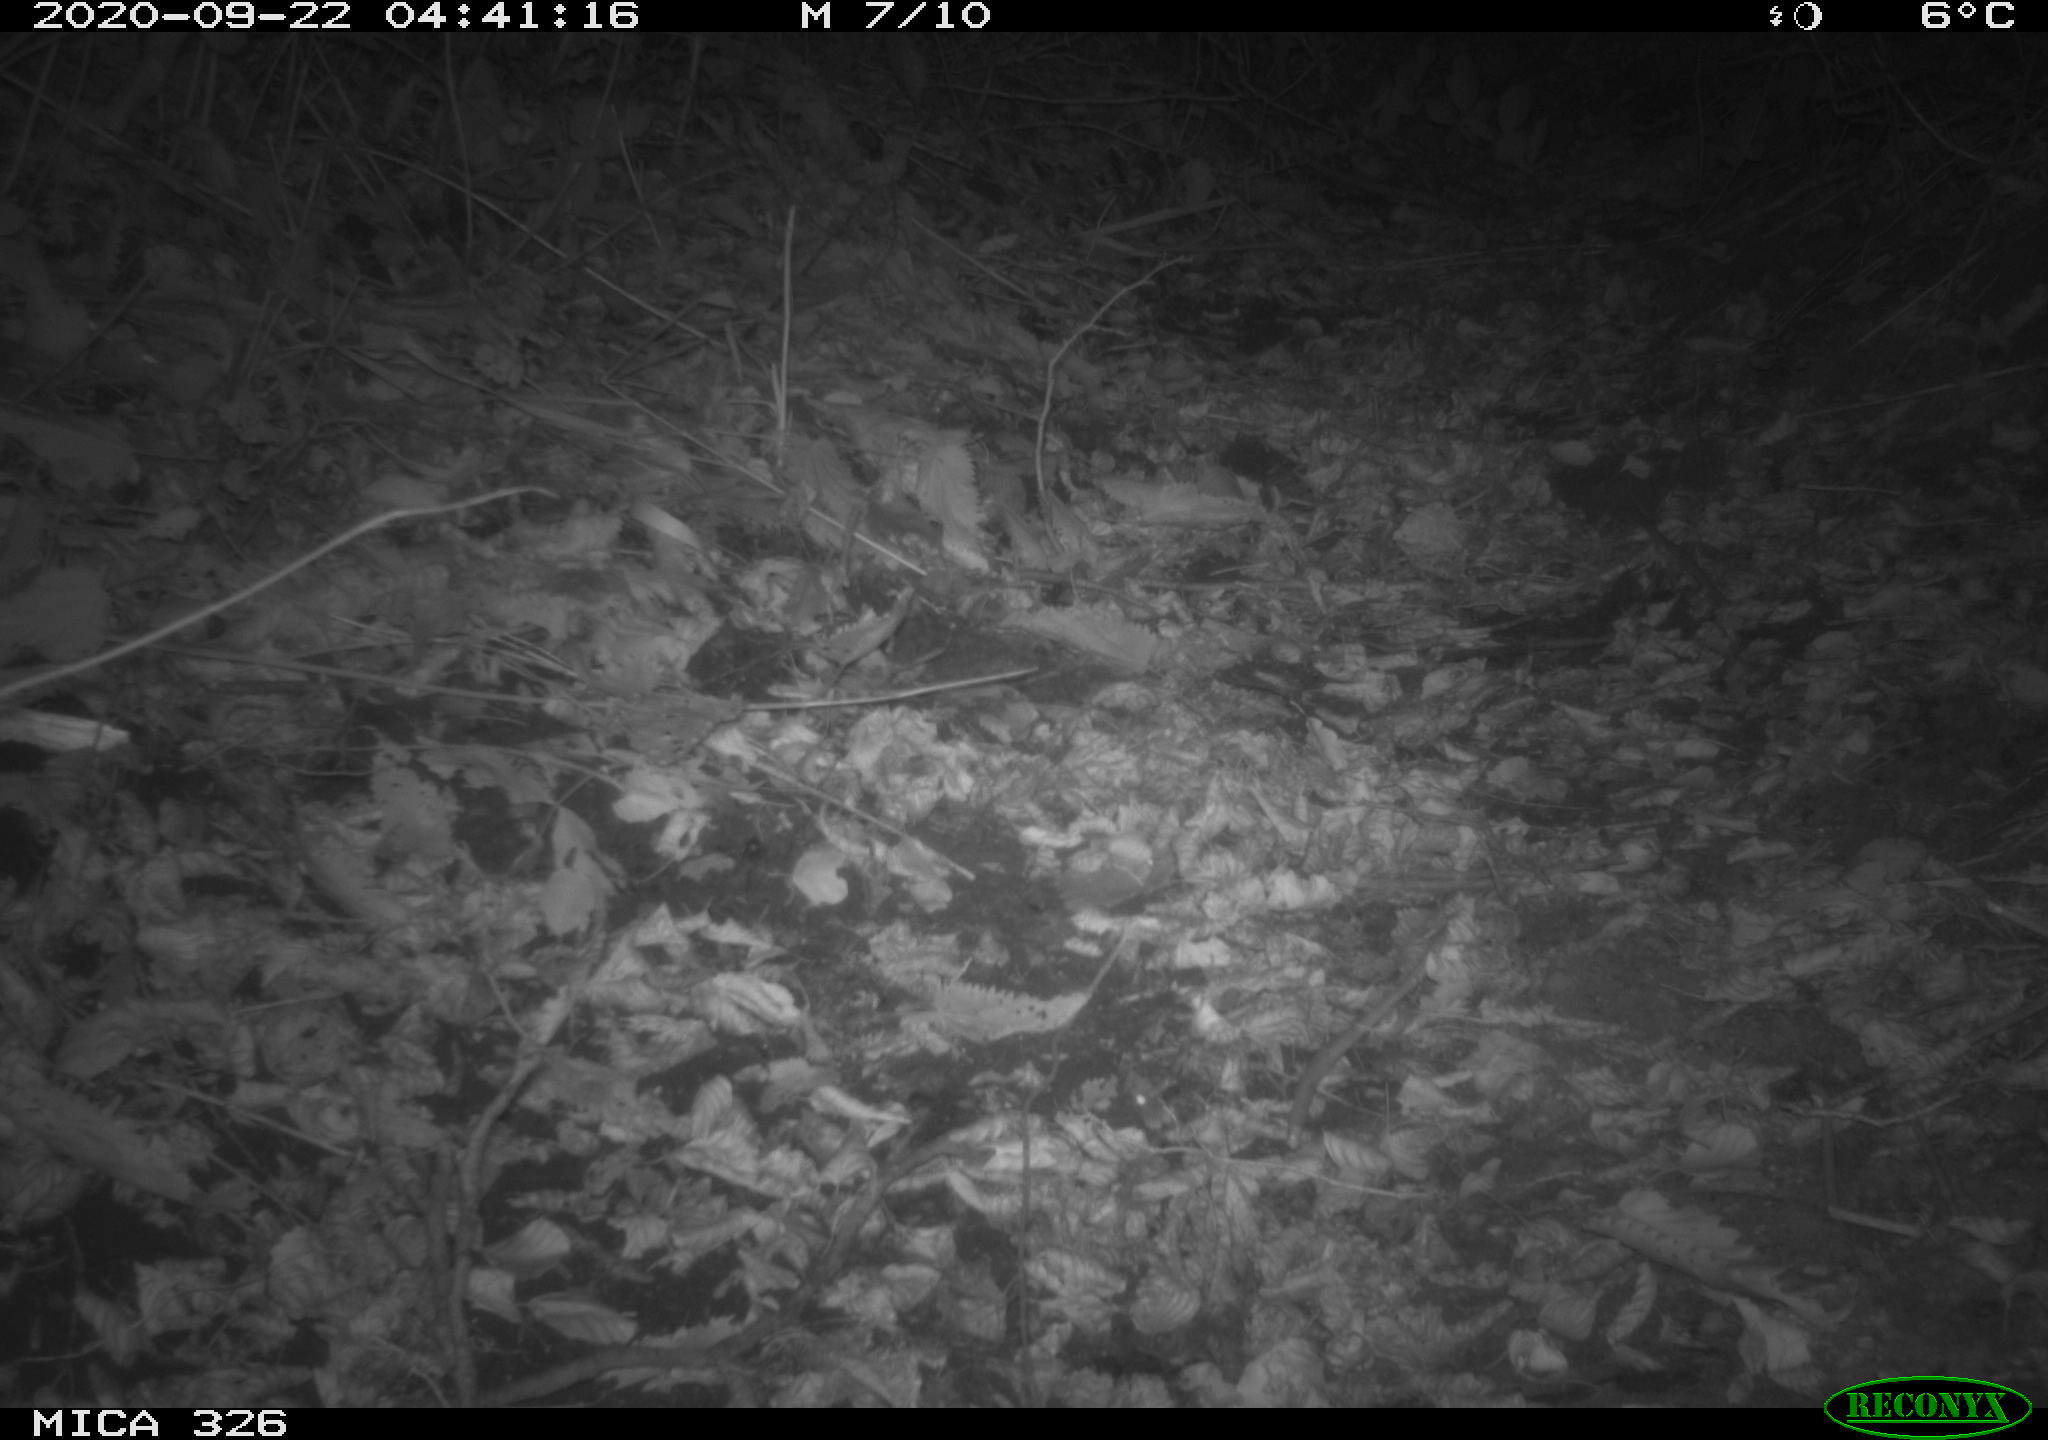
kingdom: Animalia
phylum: Chordata
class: Mammalia
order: Rodentia
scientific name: Rodentia
